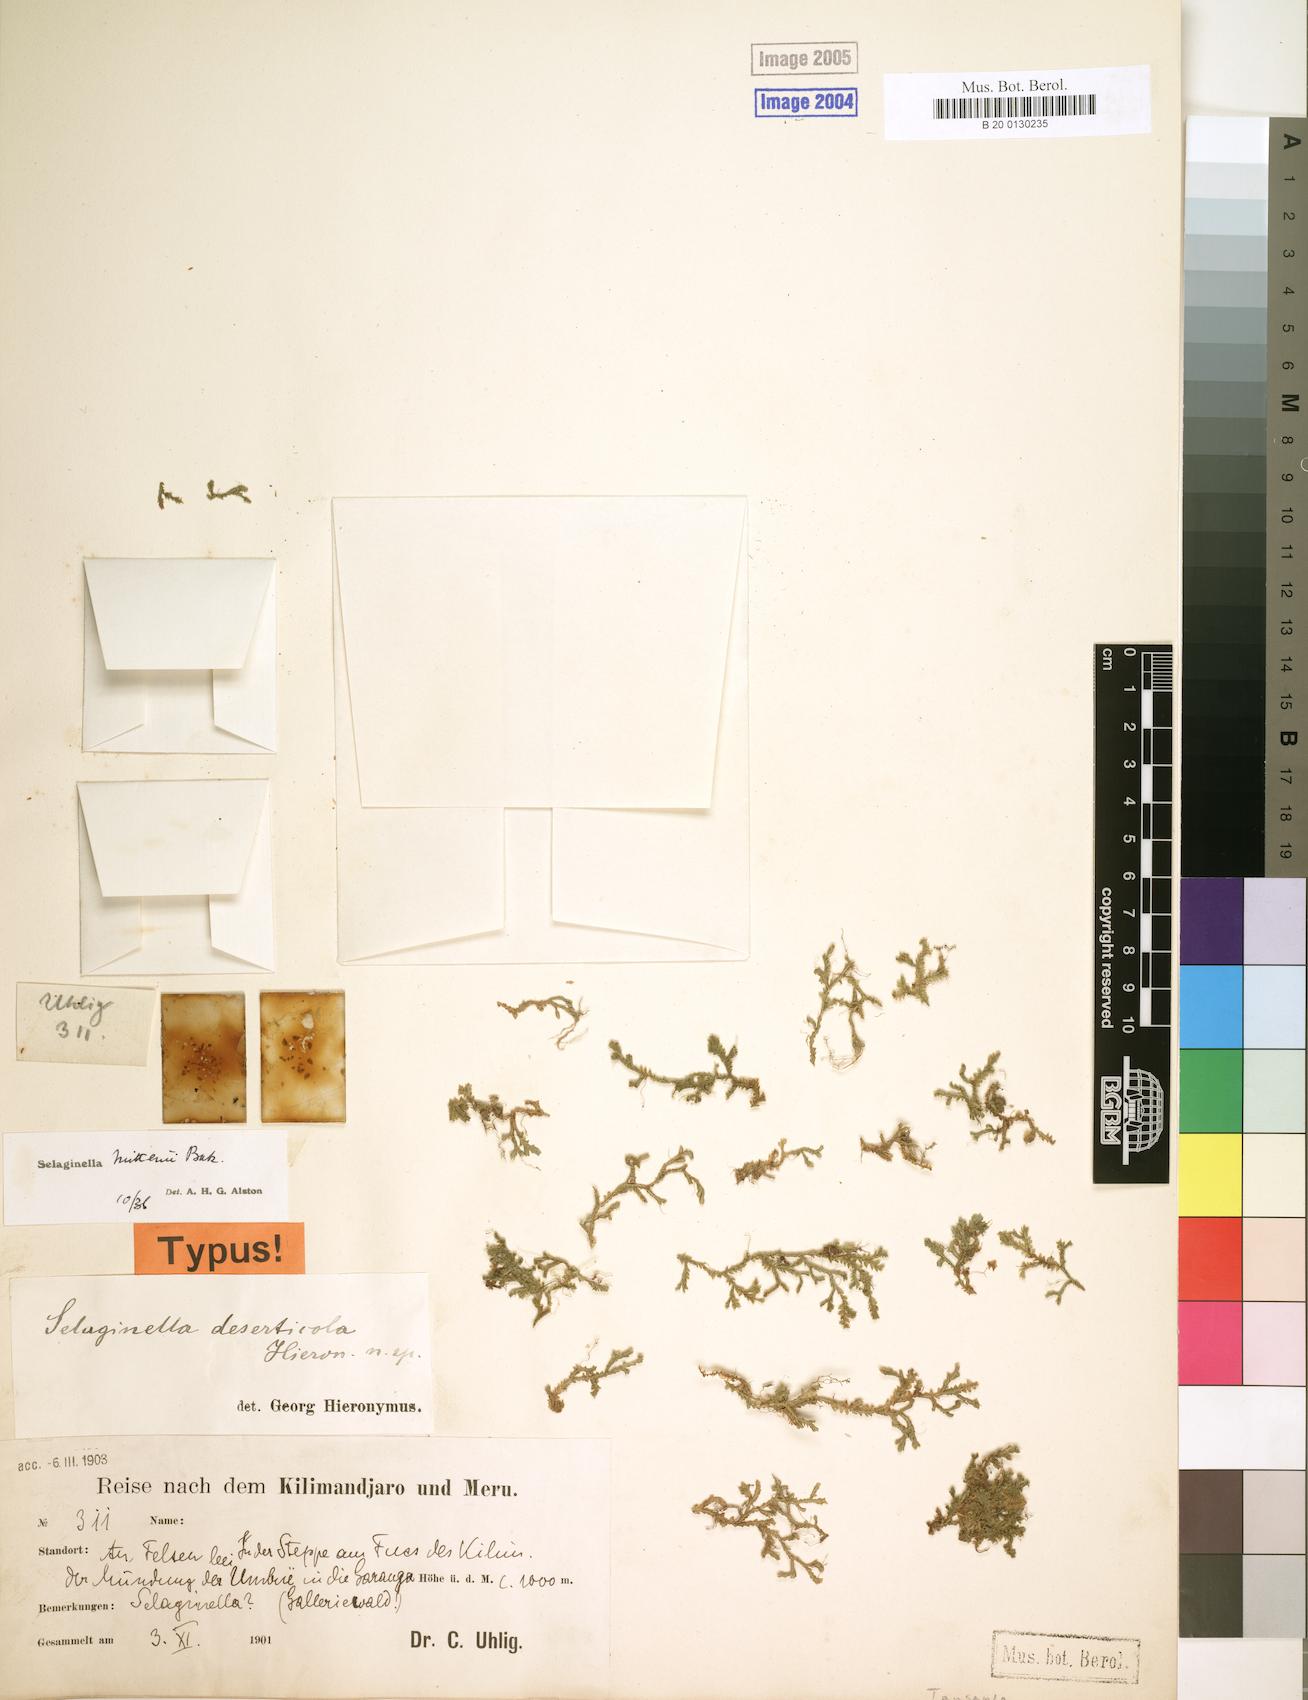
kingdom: Plantae
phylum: Tracheophyta
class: Lycopodiopsida
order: Selaginellales
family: Selaginellaceae
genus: Selaginella
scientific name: Selaginella mittenii
